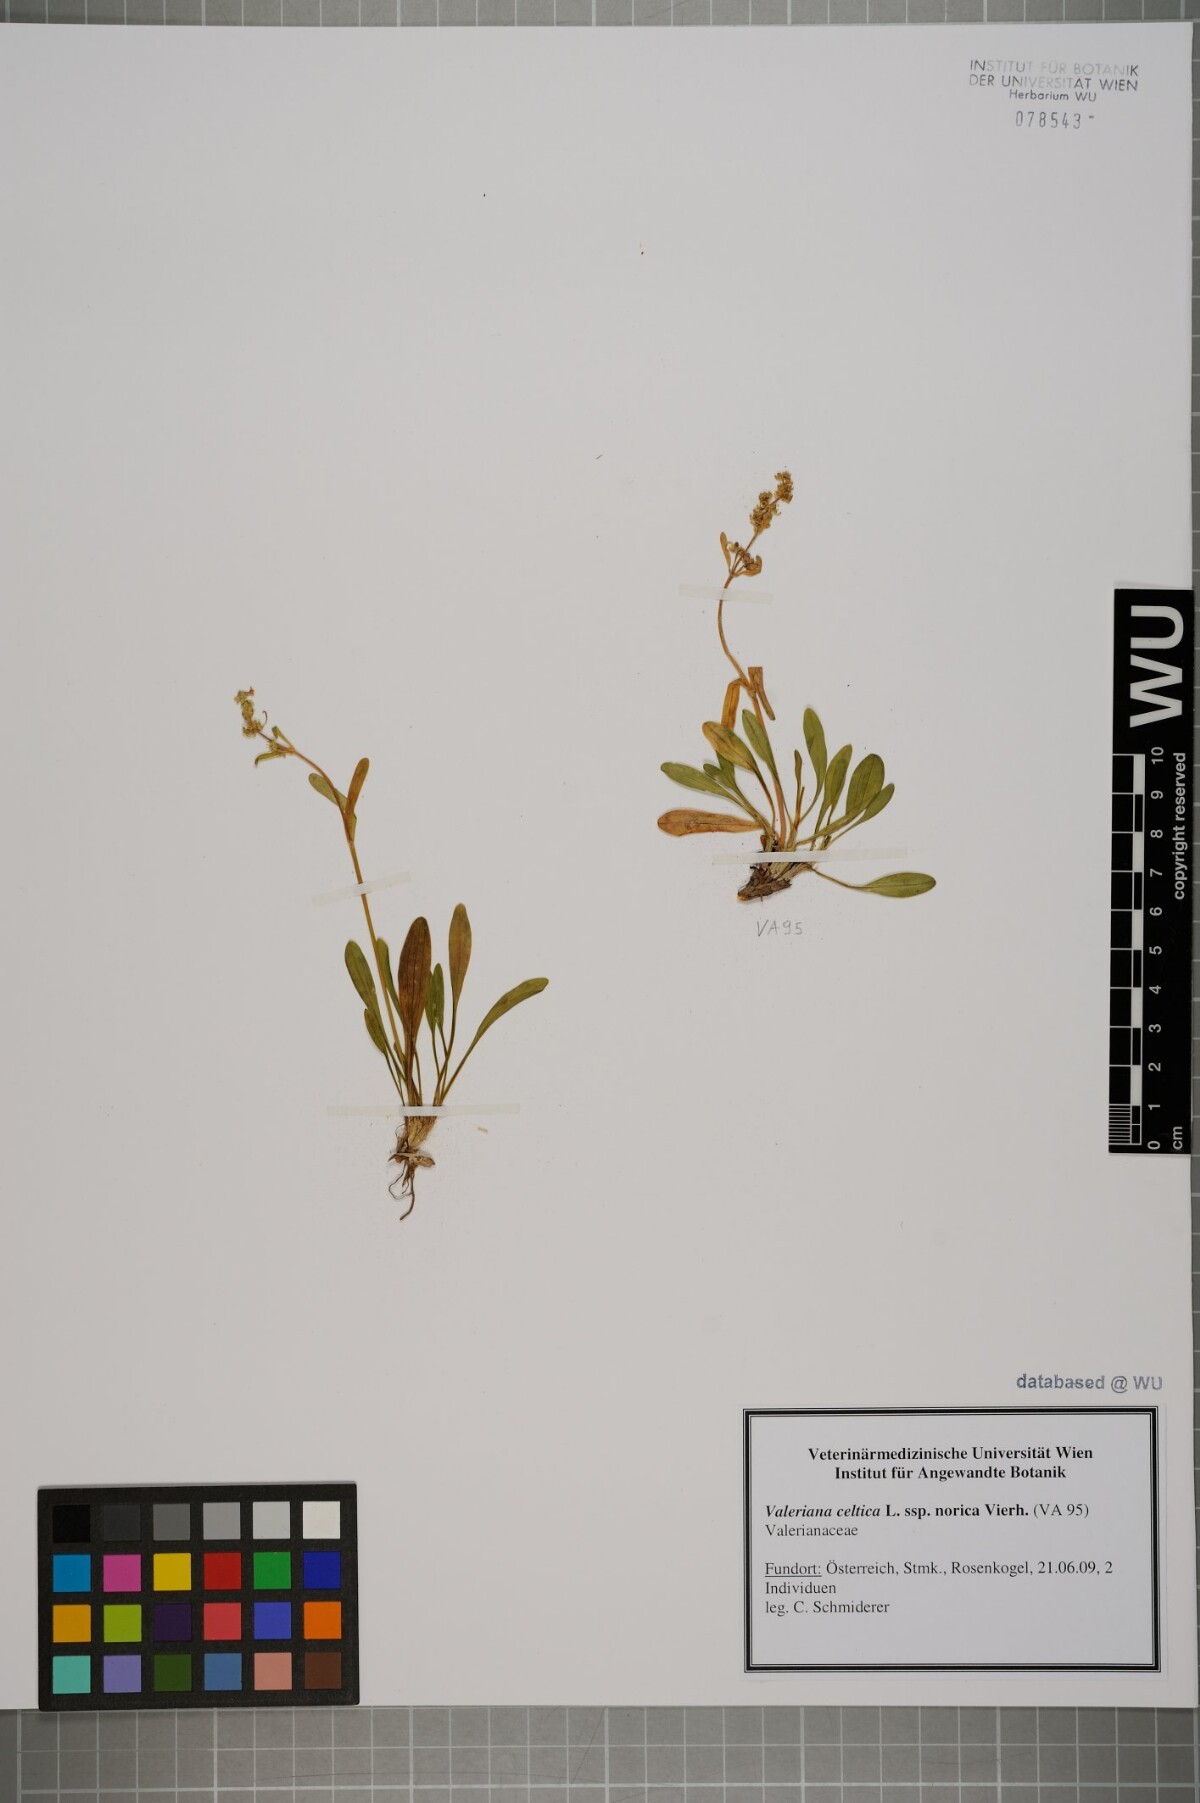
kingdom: Plantae
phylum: Tracheophyta
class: Magnoliopsida
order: Dipsacales
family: Caprifoliaceae
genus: Valeriana
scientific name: Valeriana celtica
